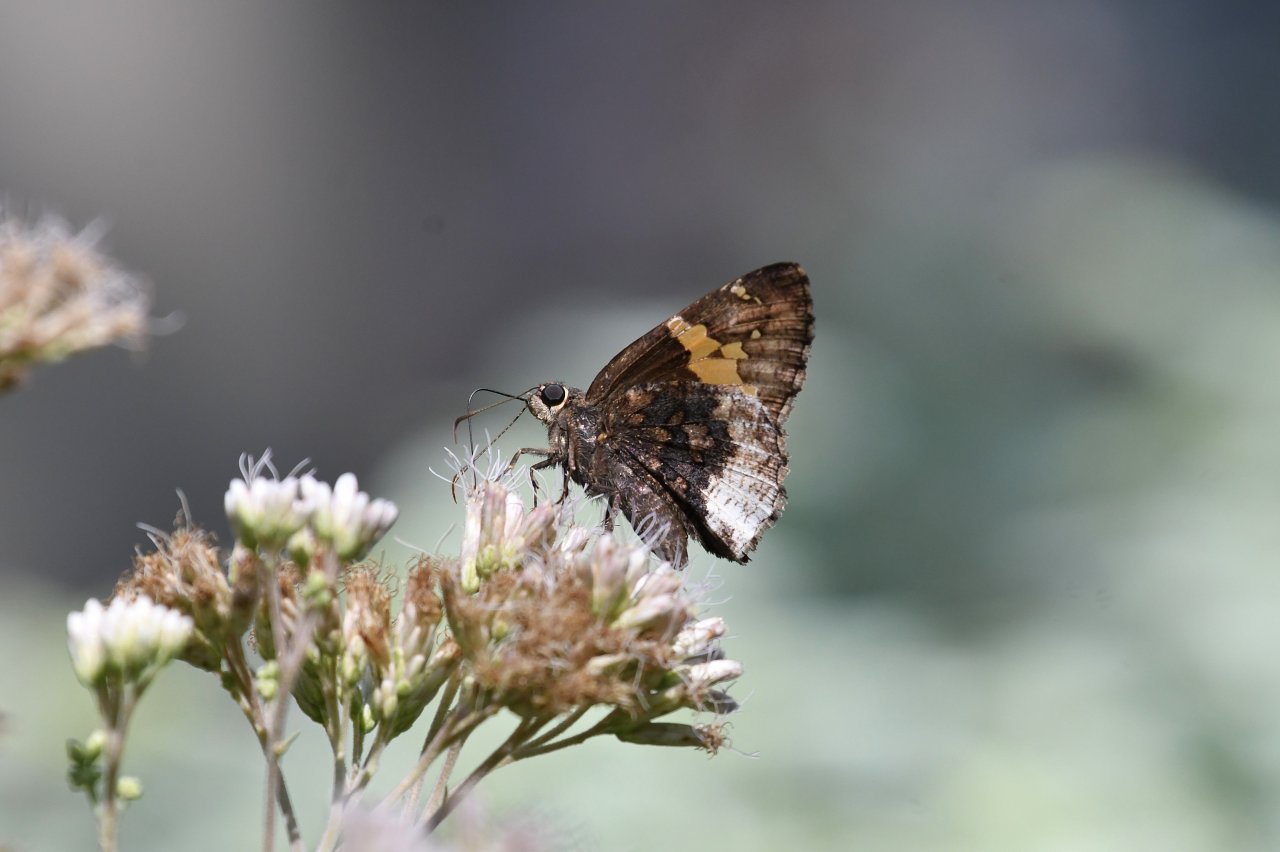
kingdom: Animalia
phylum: Arthropoda
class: Insecta
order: Lepidoptera
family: Hesperiidae
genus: Achalarus
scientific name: Achalarus lyciades
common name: Hoary Edge
